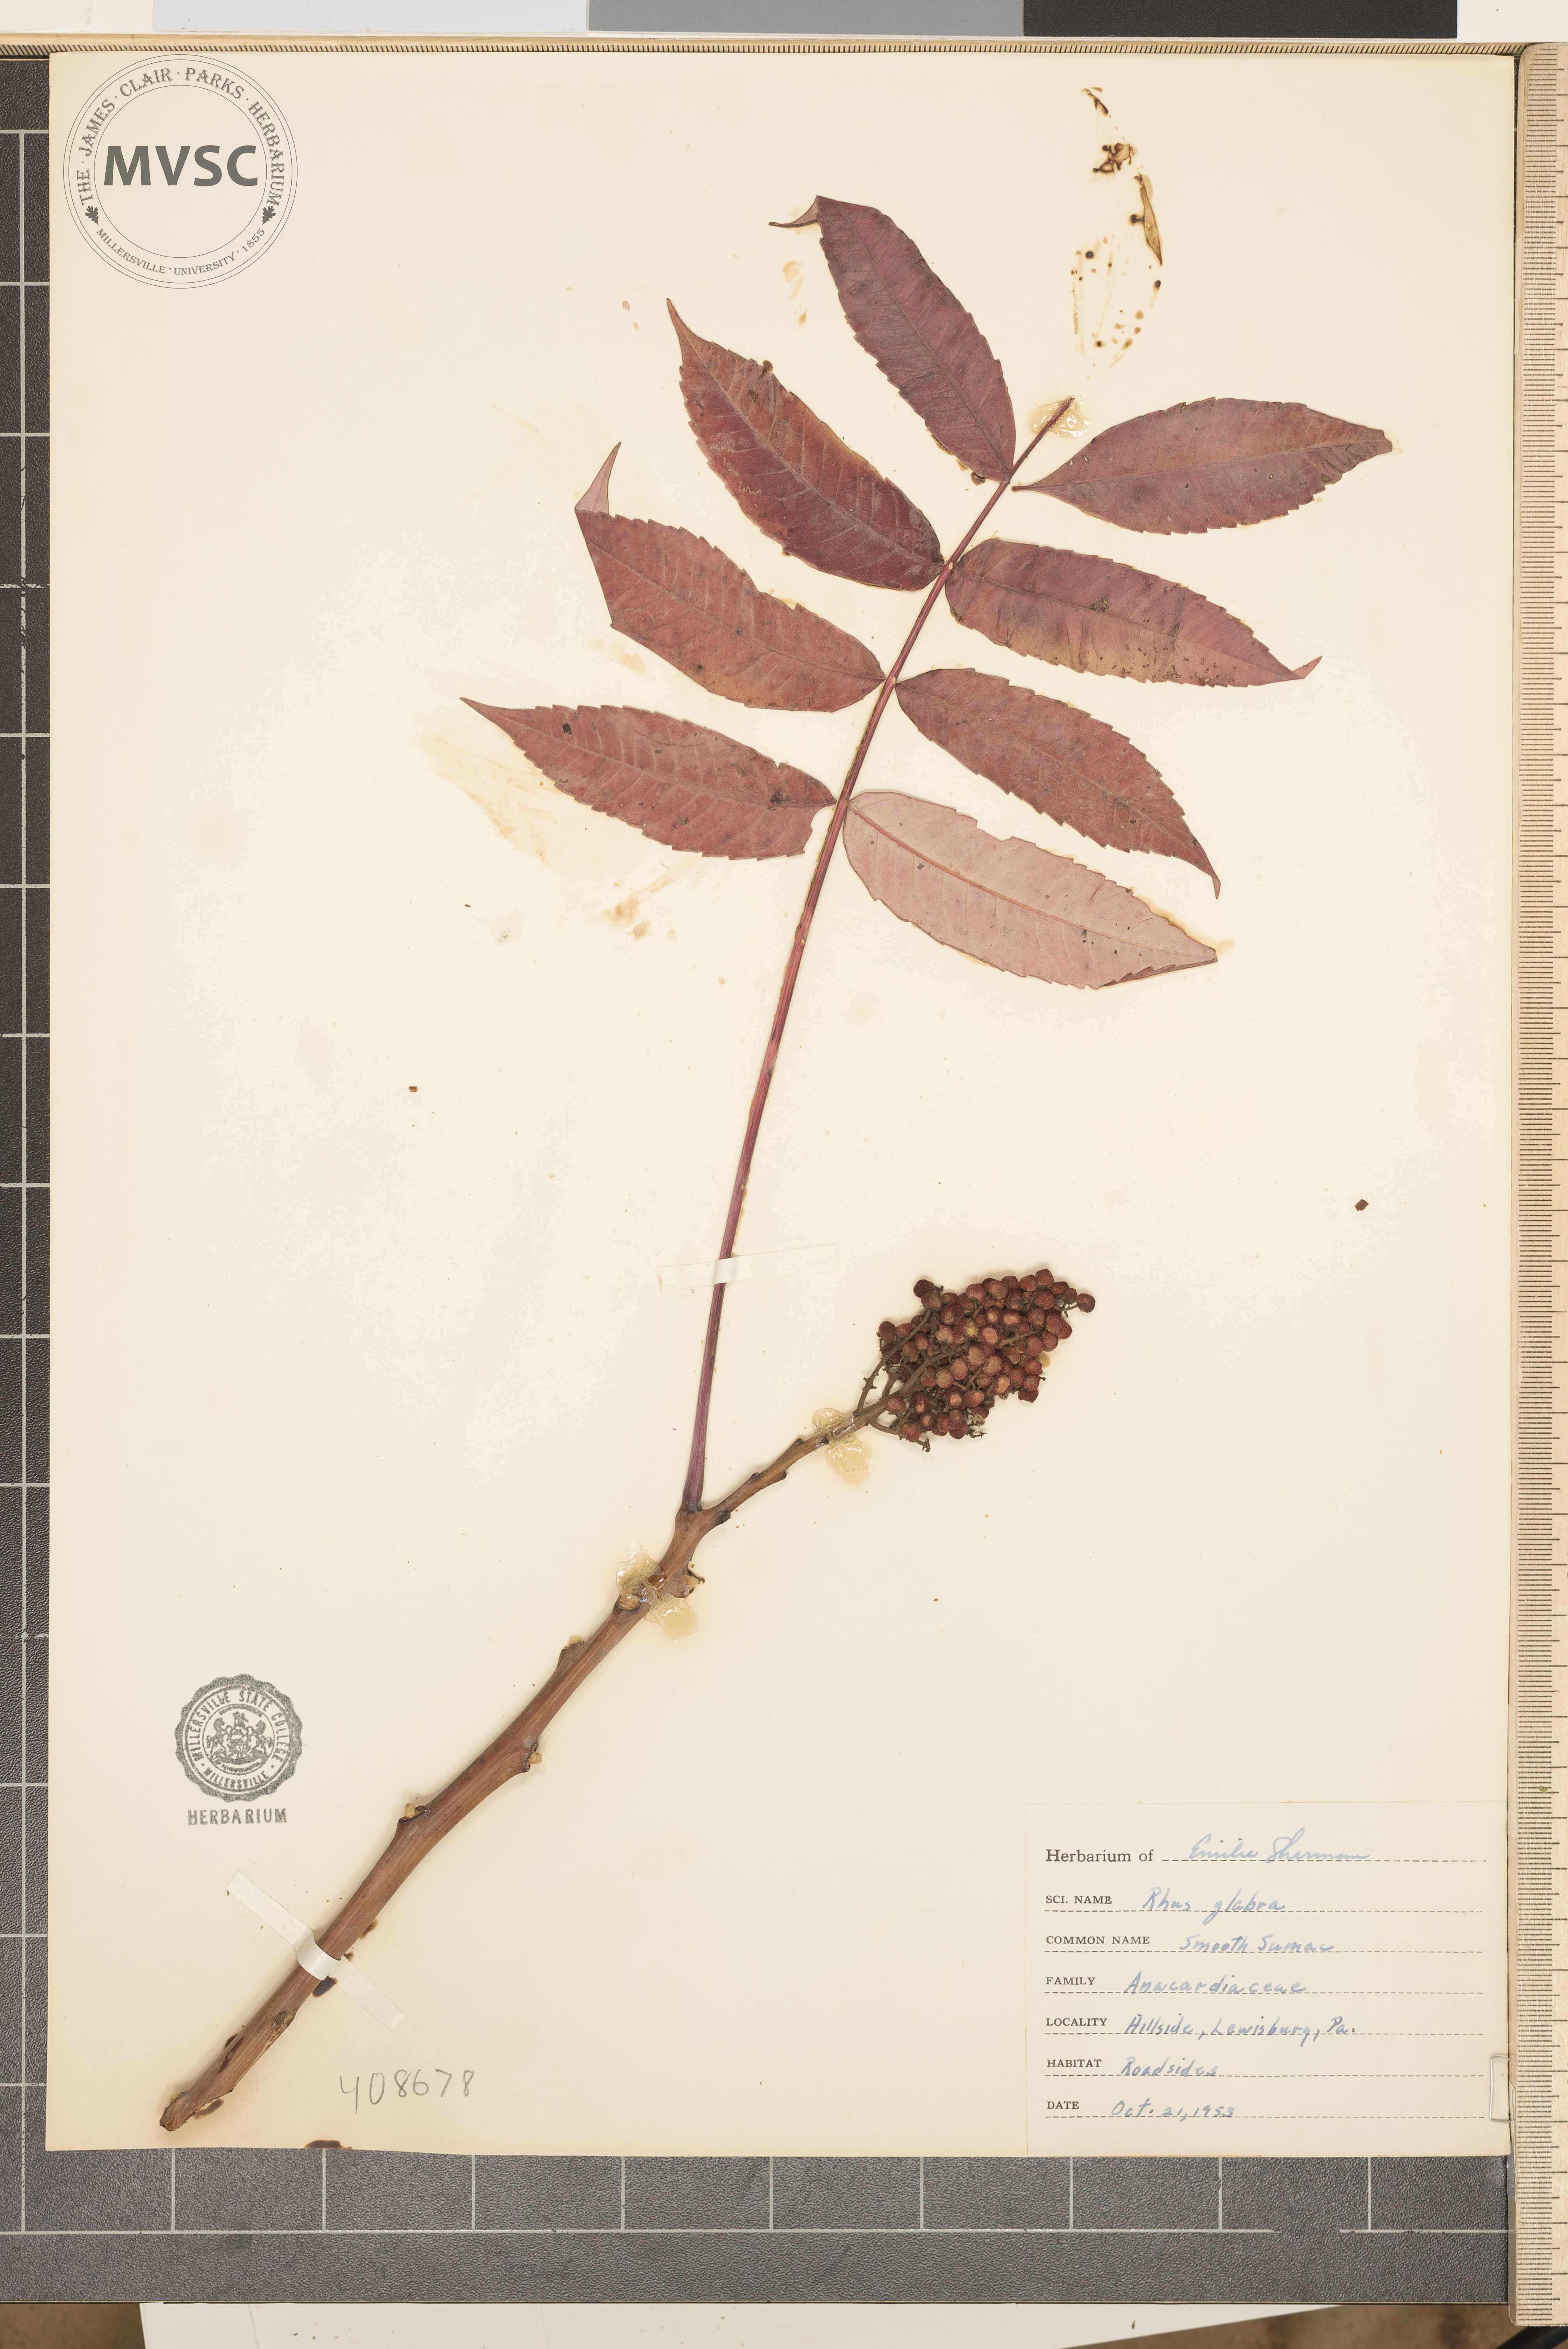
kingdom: Plantae
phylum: Tracheophyta
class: Magnoliopsida
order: Sapindales
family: Anacardiaceae
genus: Rhus
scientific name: Rhus glabra
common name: Scarlet sumac
